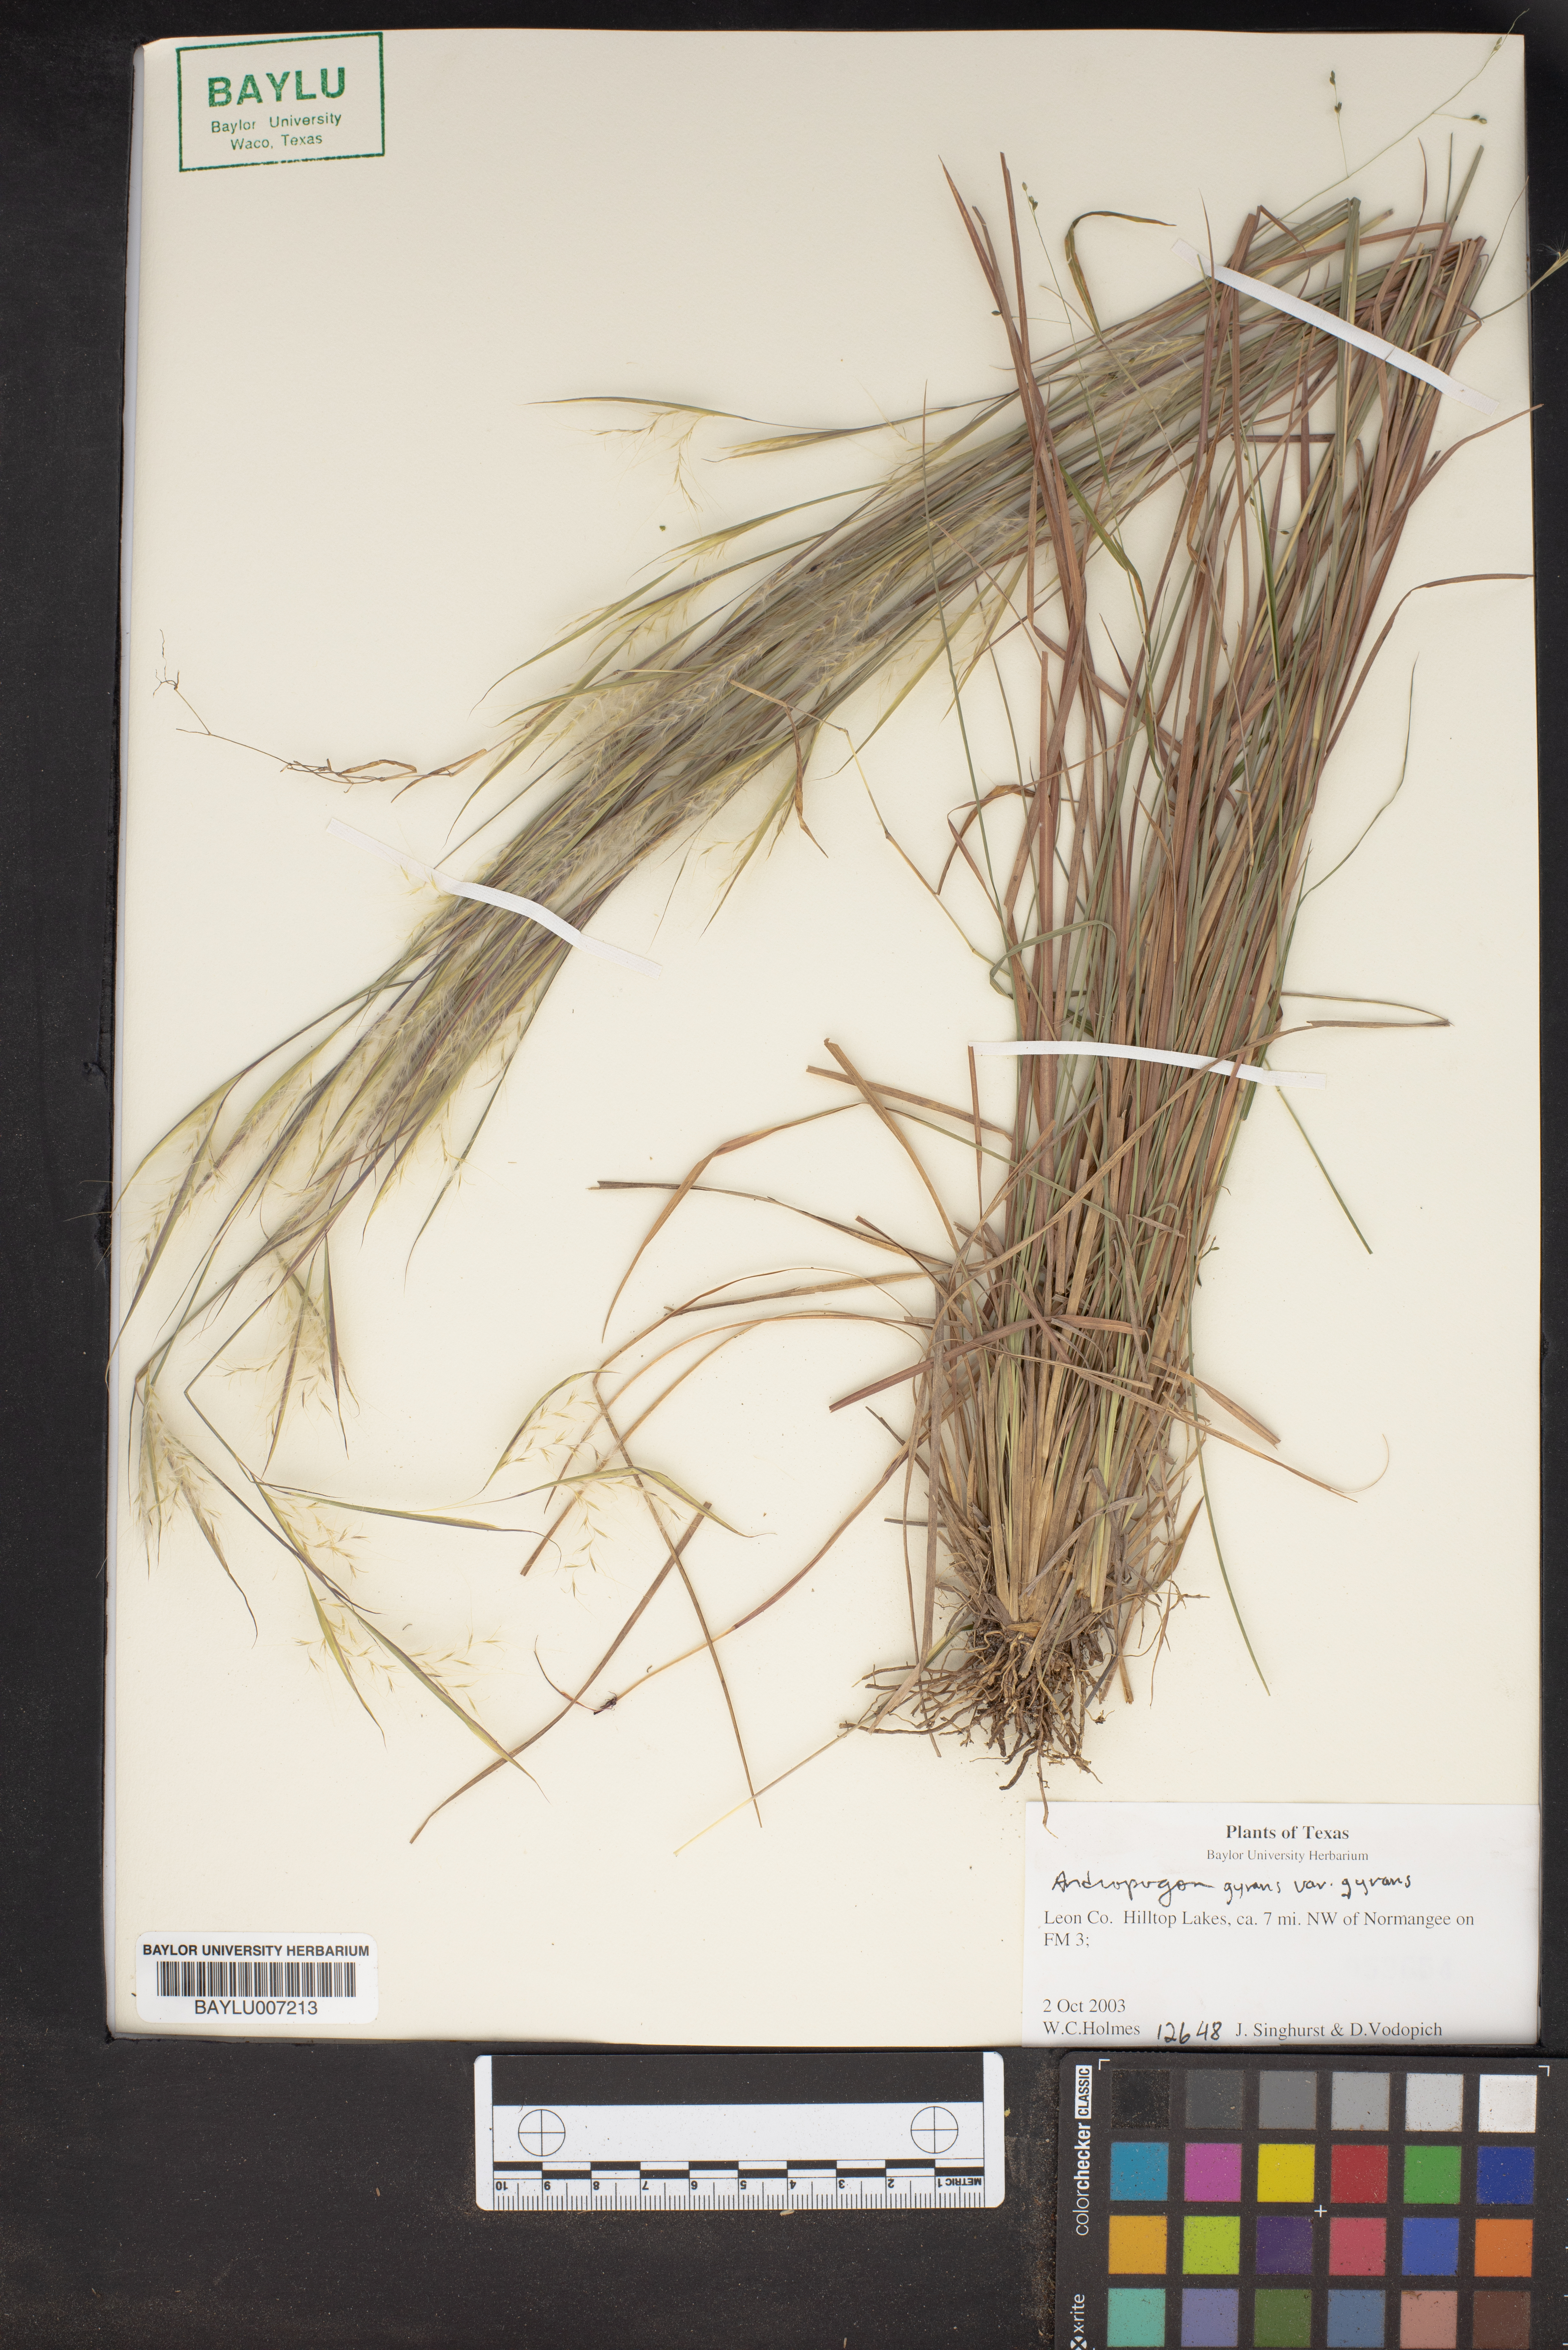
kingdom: Plantae
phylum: Tracheophyta
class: Liliopsida
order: Poales
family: Poaceae
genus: Andropogon
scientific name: Andropogon gyrans
